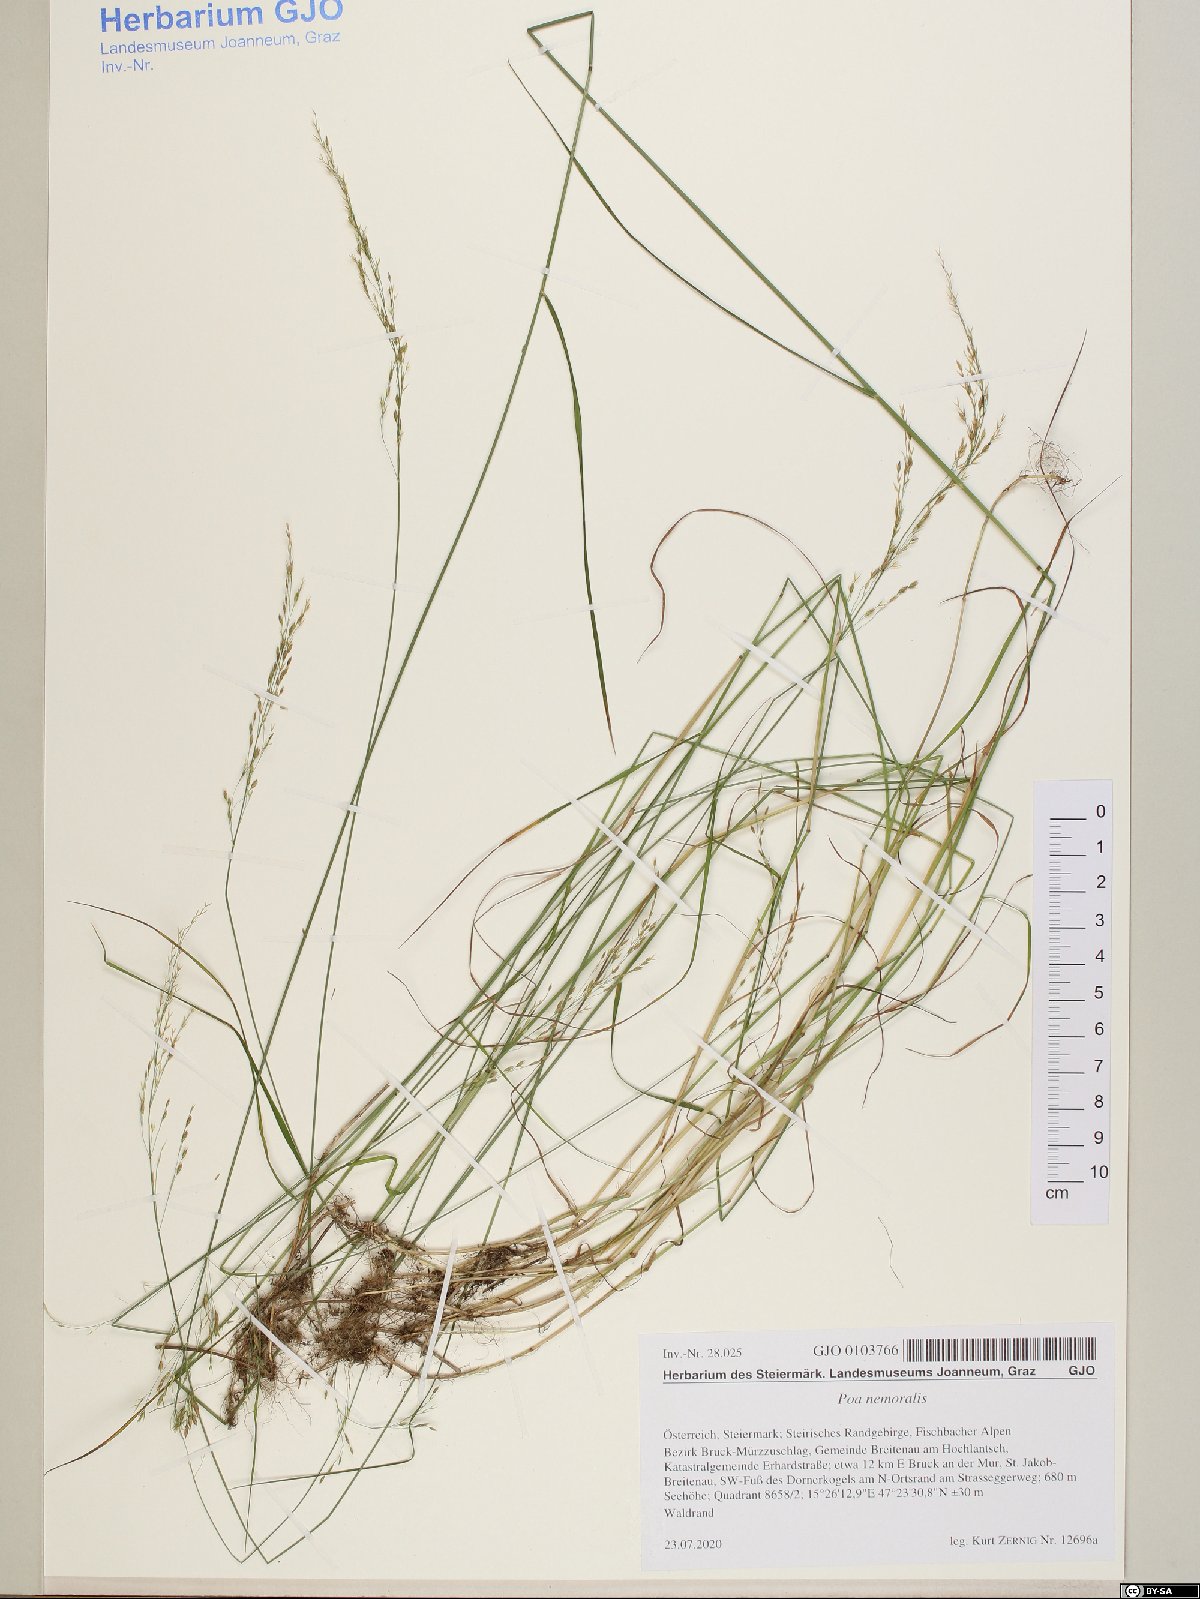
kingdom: Plantae
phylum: Tracheophyta
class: Liliopsida
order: Poales
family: Poaceae
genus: Poa
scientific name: Poa nemoralis
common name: Wood bluegrass
